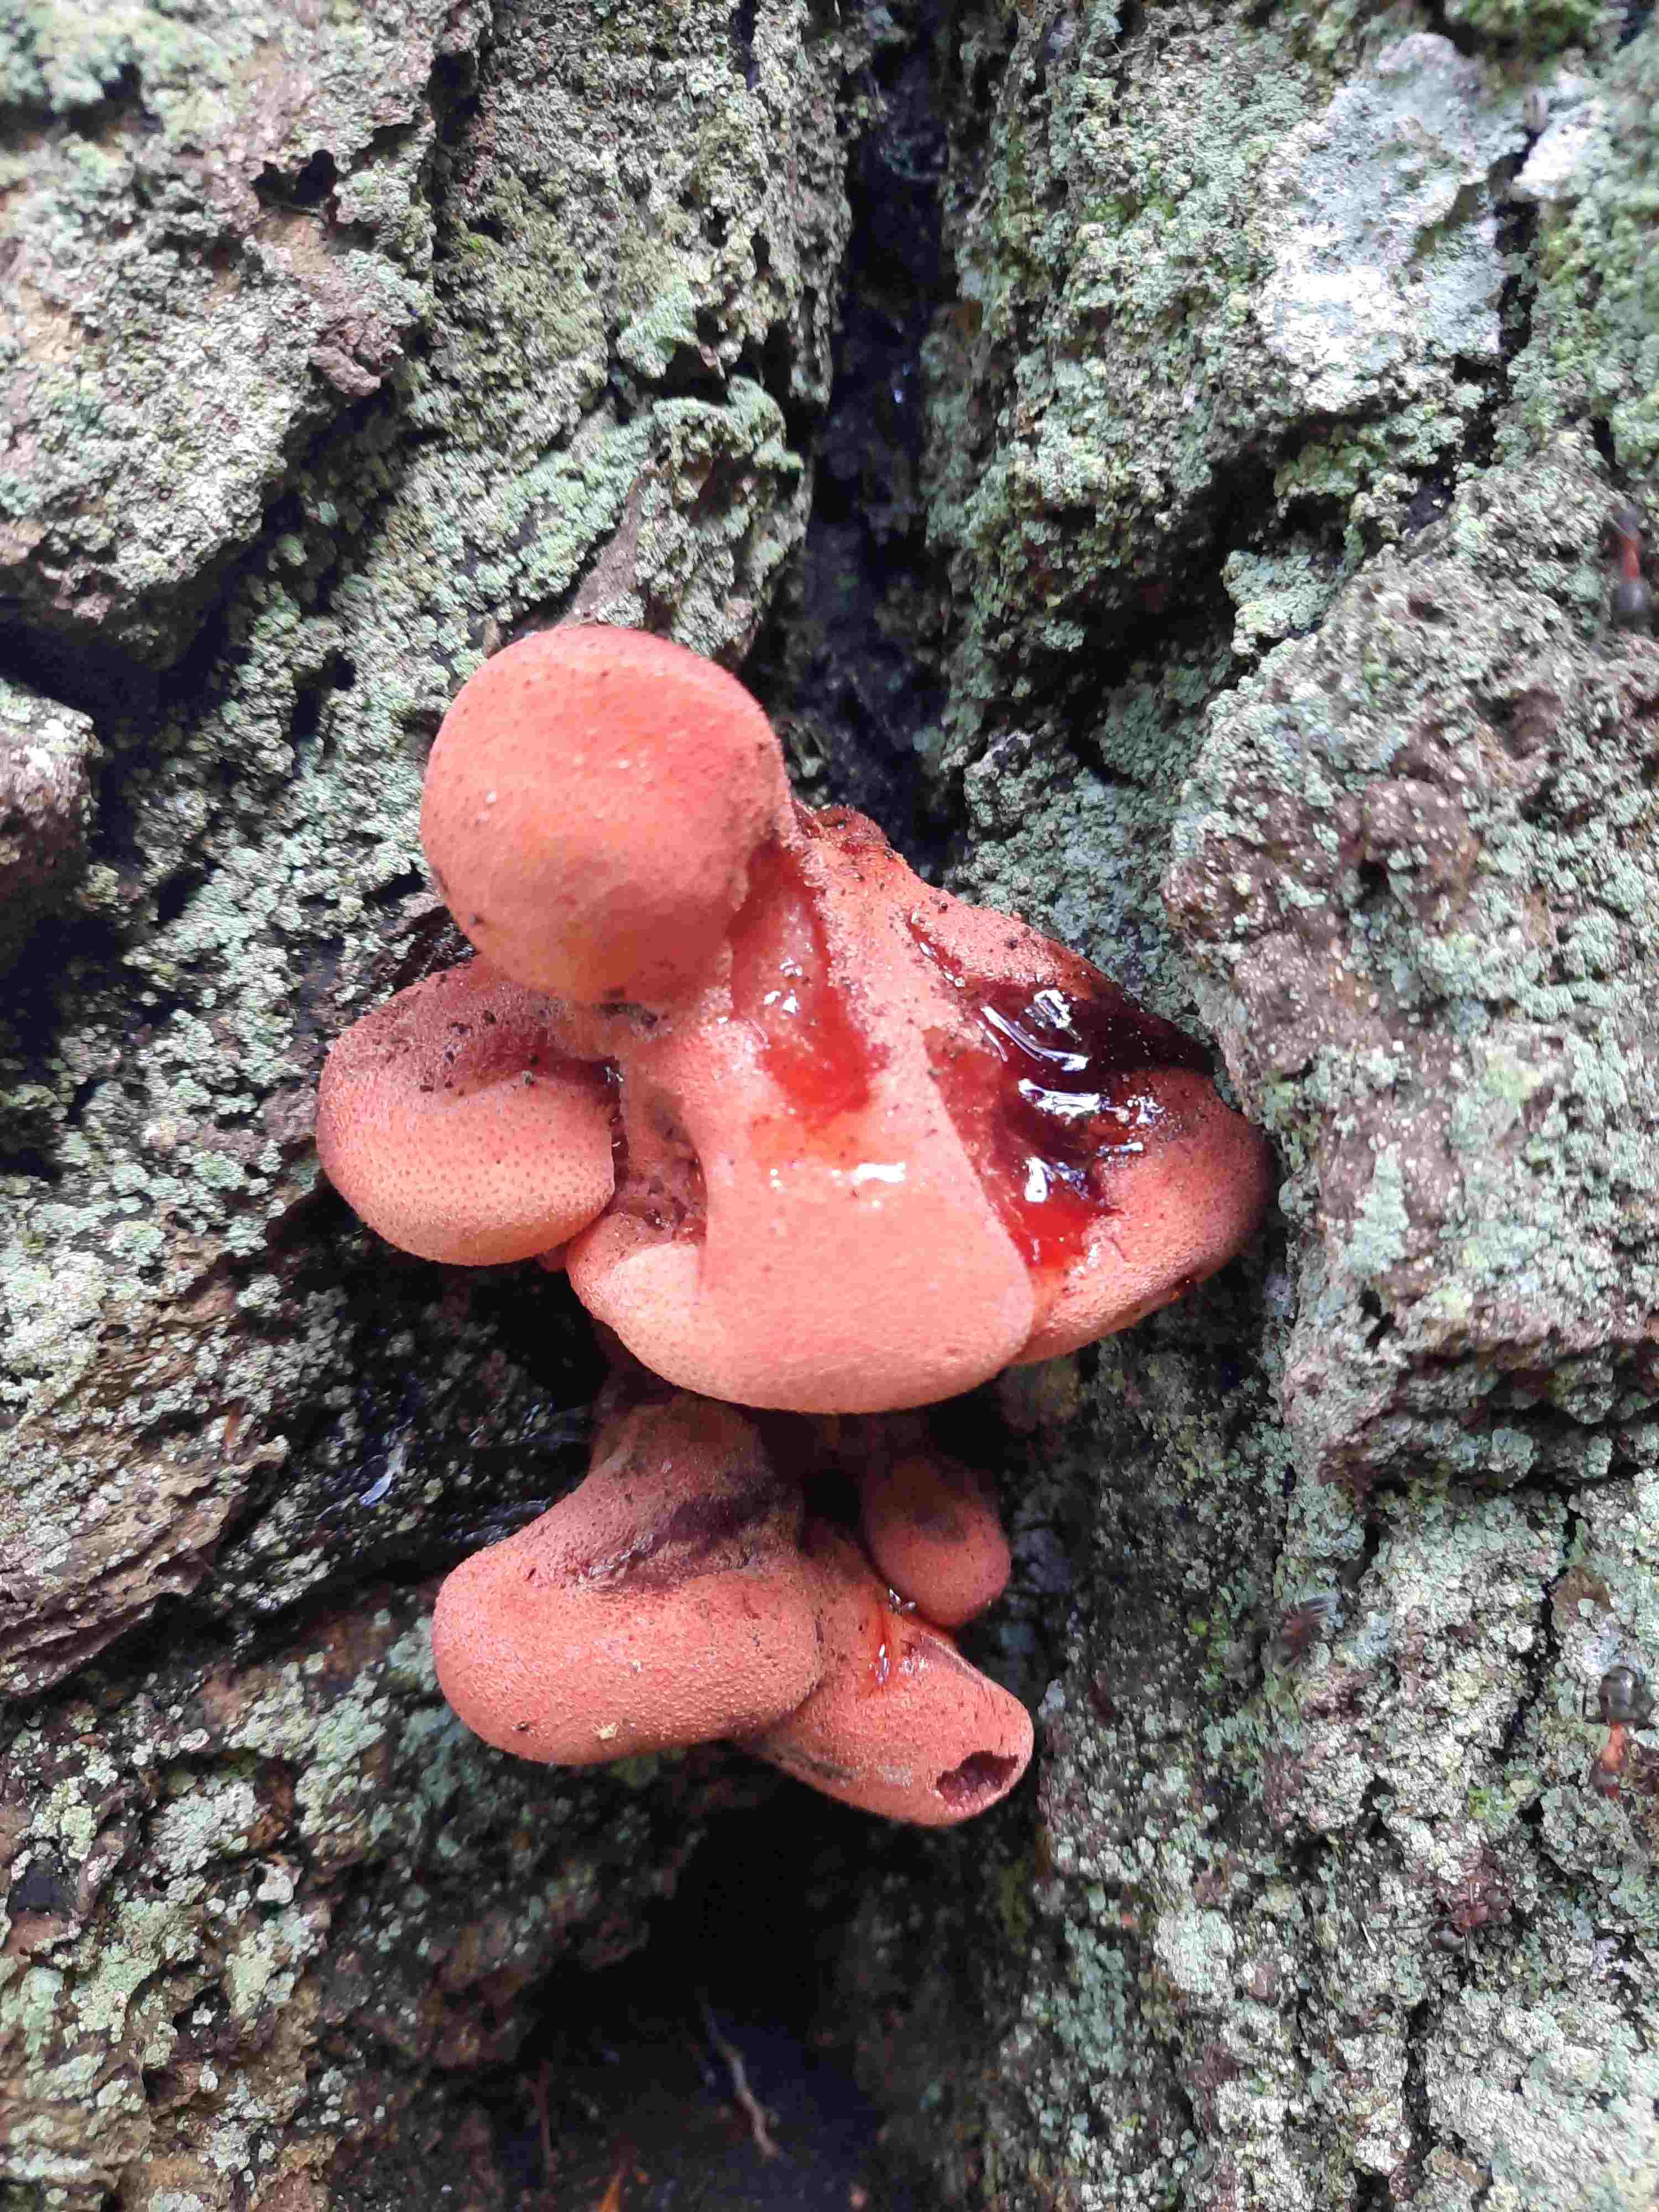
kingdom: Fungi
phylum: Basidiomycota
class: Agaricomycetes
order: Agaricales
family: Fistulinaceae
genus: Fistulina
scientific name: Fistulina hepatica
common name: oksetunge
